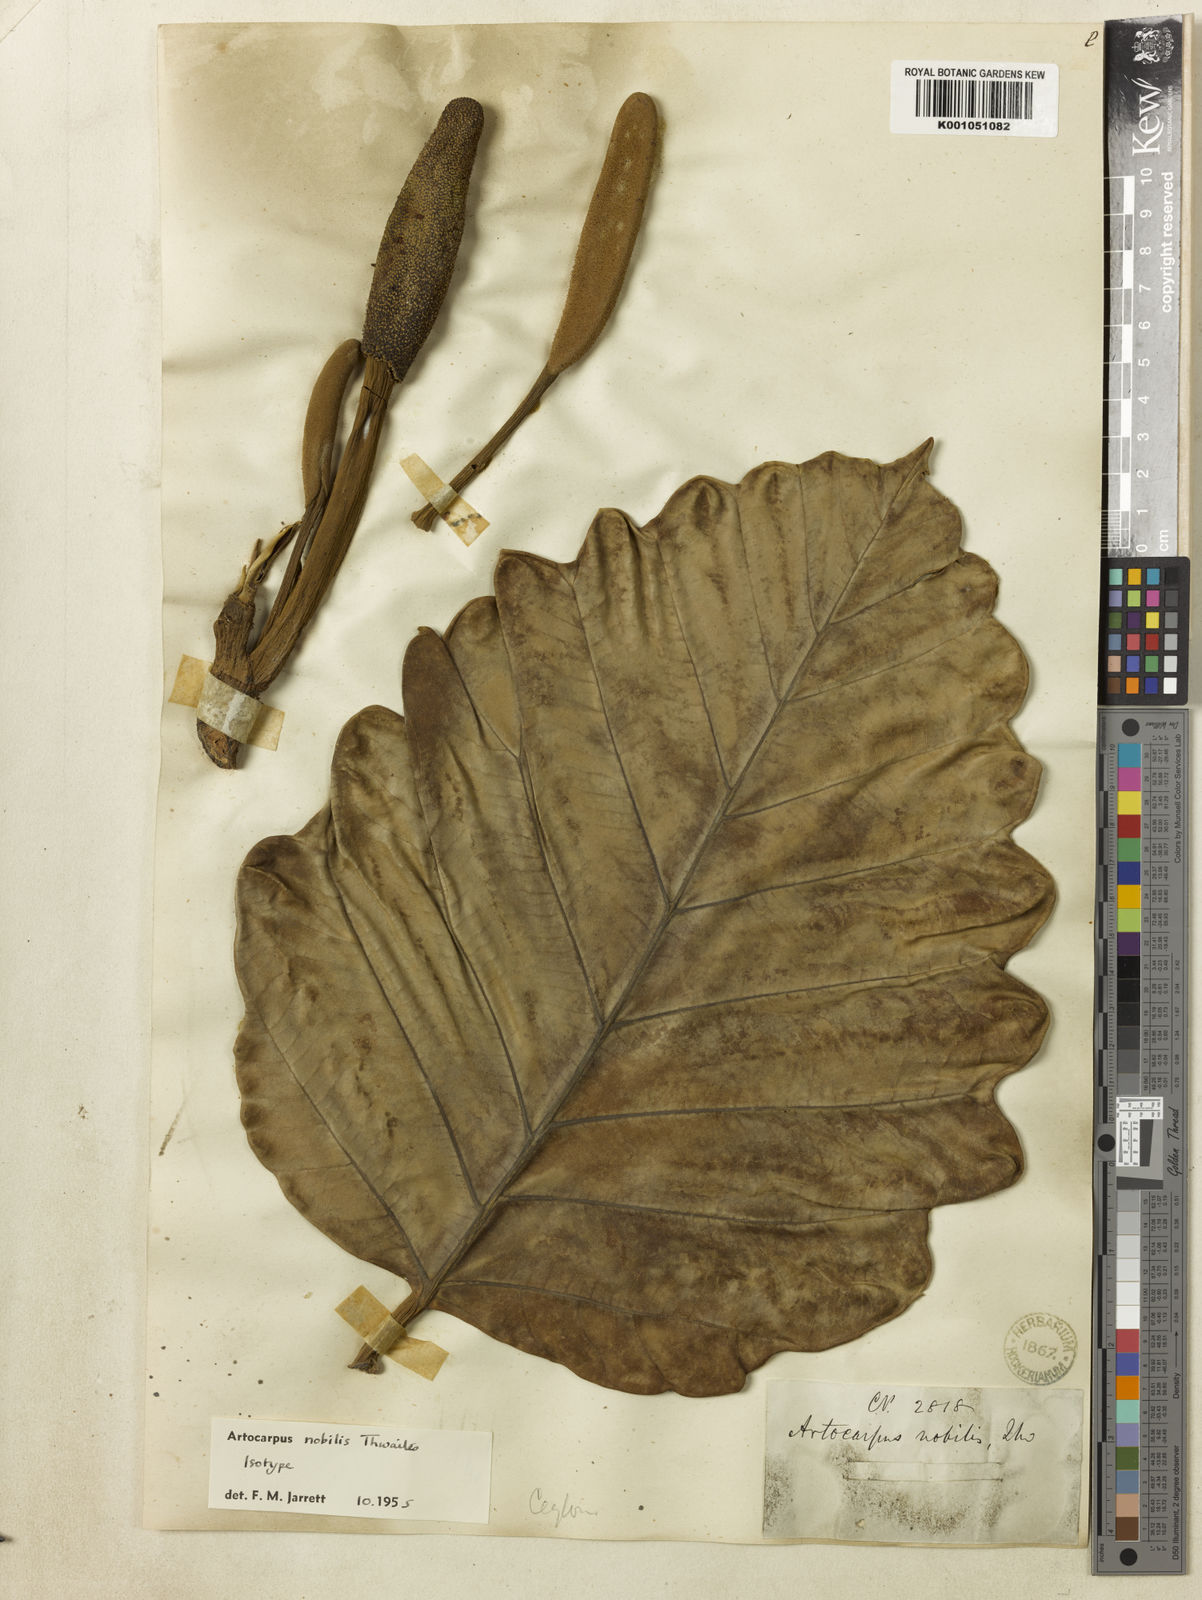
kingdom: Plantae
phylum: Tracheophyta
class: Magnoliopsida
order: Rosales
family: Moraceae
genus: Artocarpus
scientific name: Artocarpus nobilis
